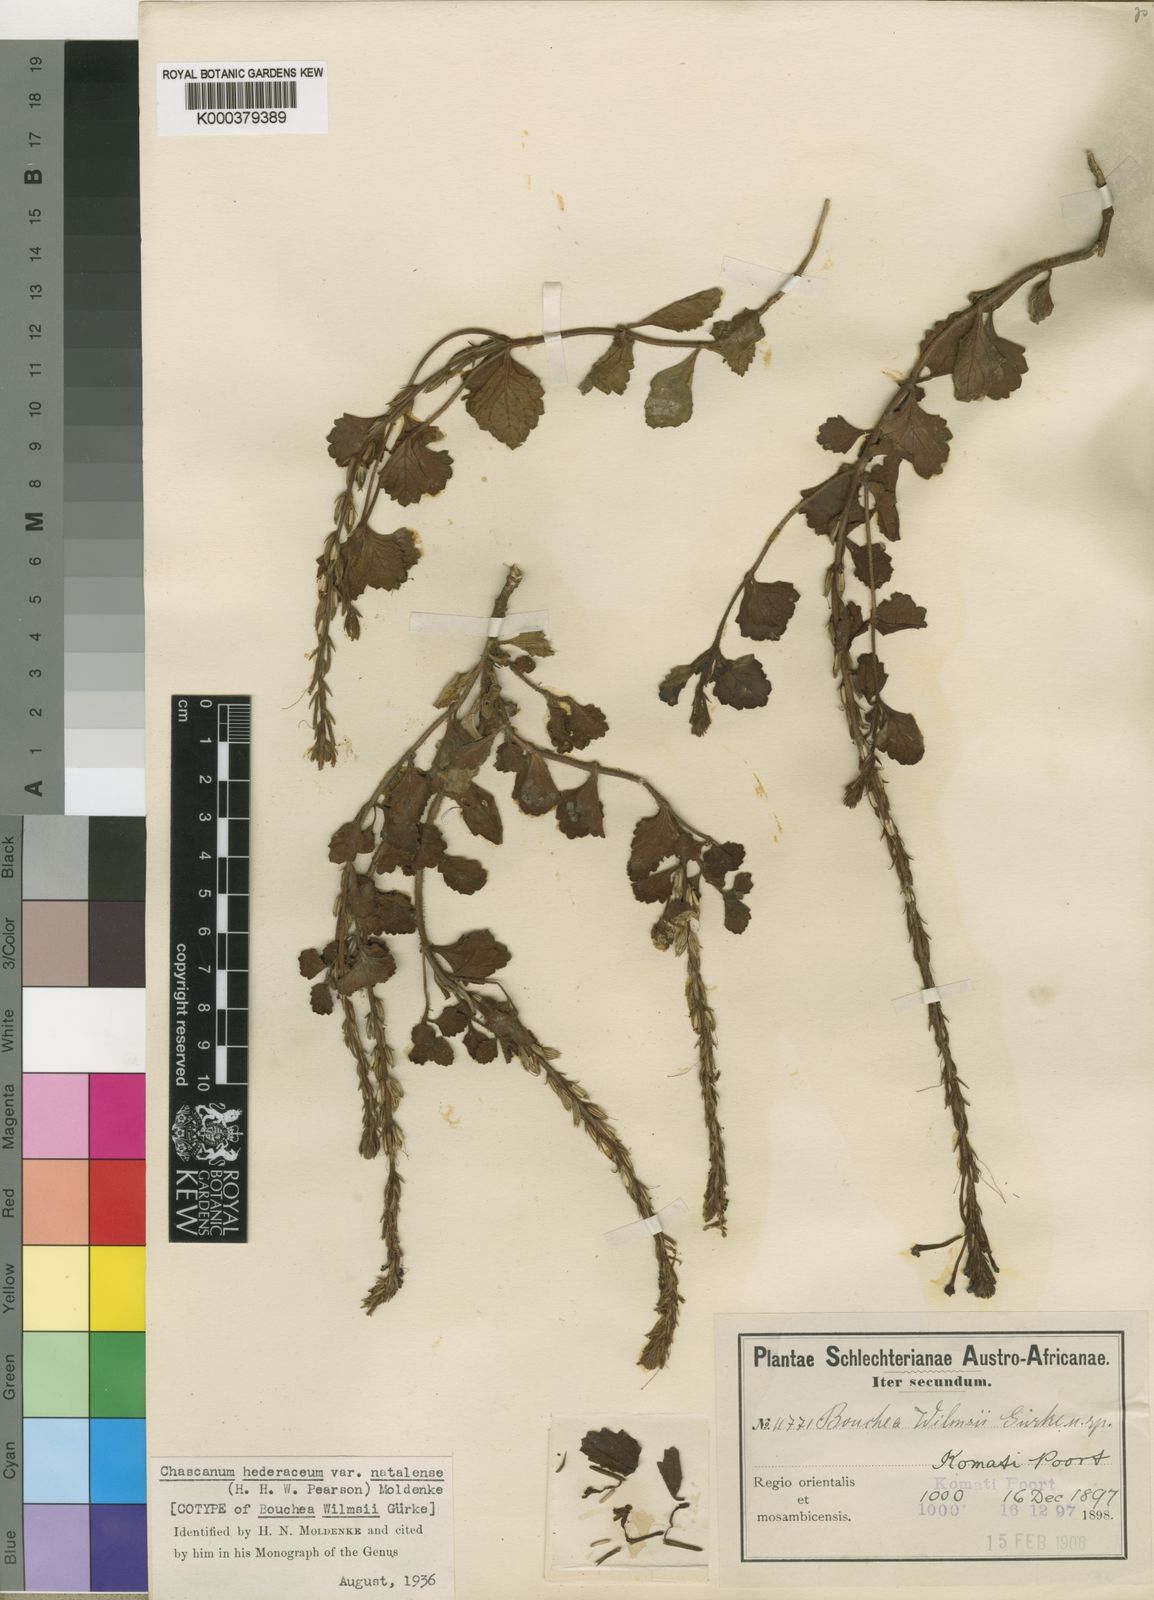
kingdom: Plantae
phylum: Tracheophyta
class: Magnoliopsida
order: Lamiales
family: Verbenaceae
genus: Chascanum
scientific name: Chascanum hederaceum
